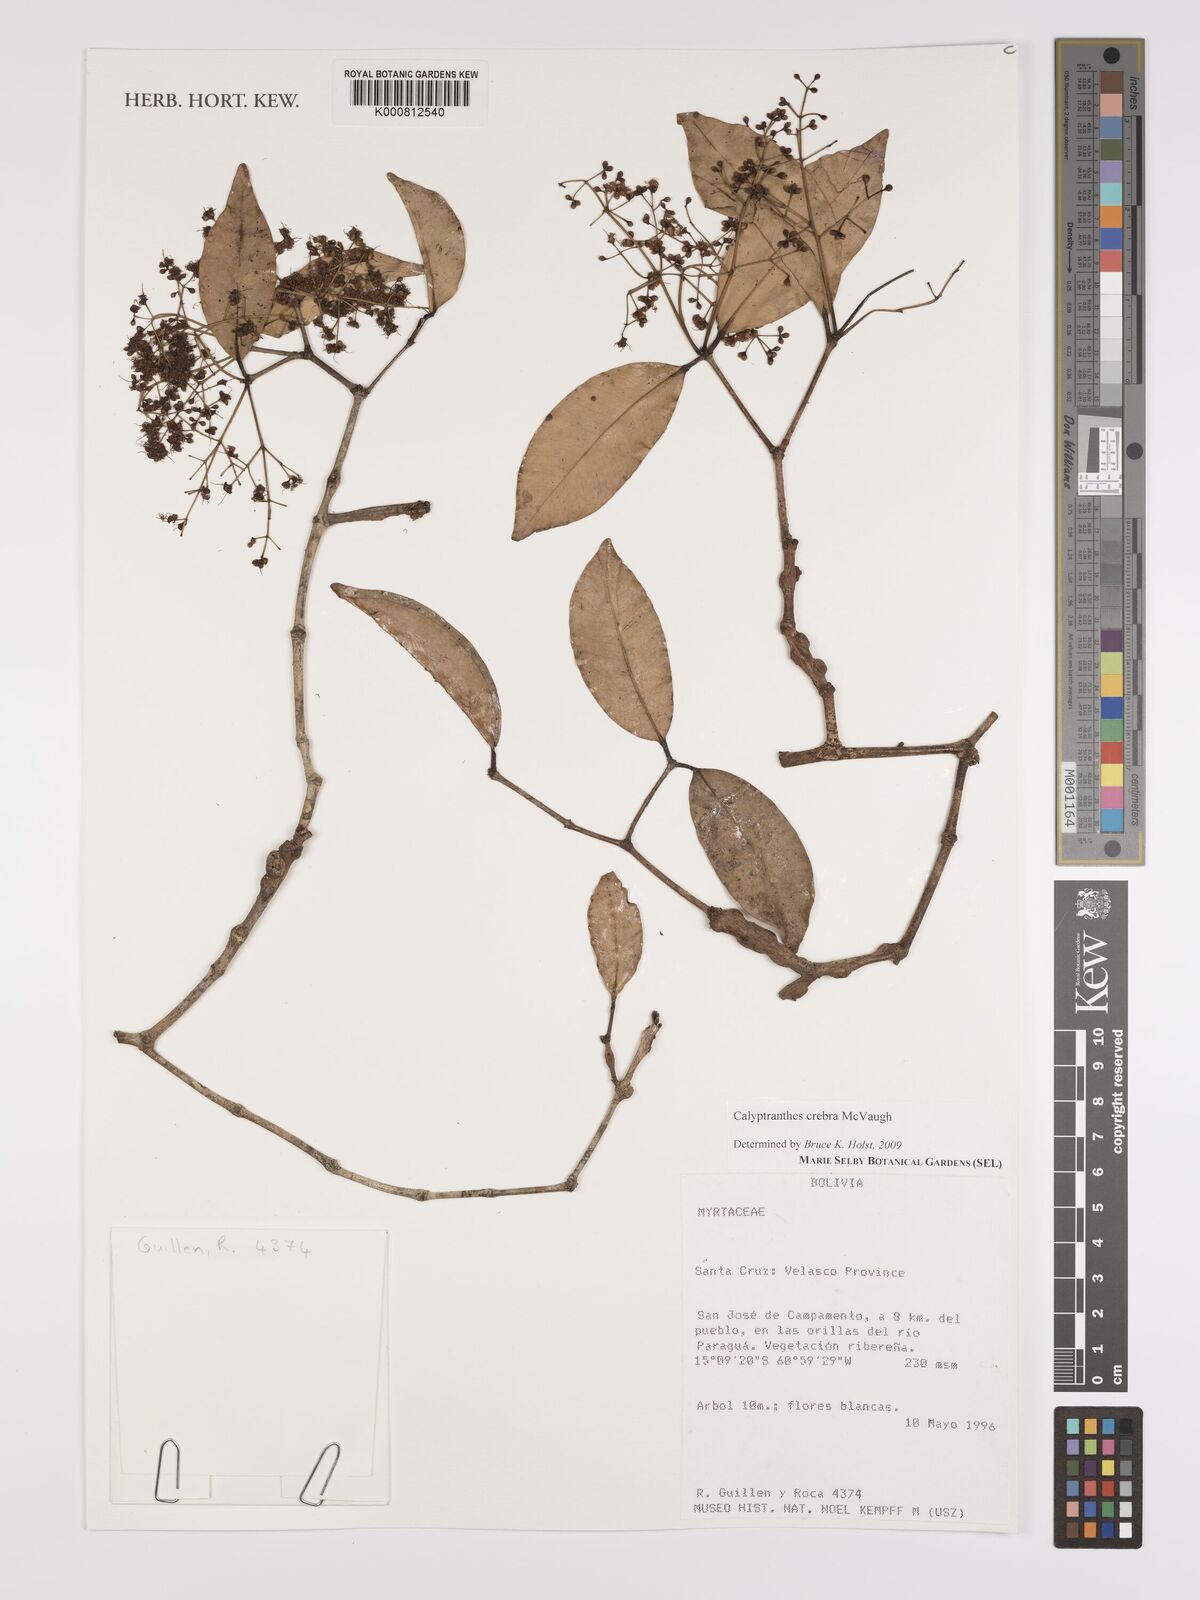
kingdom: Plantae
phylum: Tracheophyta
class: Magnoliopsida
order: Myrtales
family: Myrtaceae
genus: Myrcia
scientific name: Myrcia crebra
